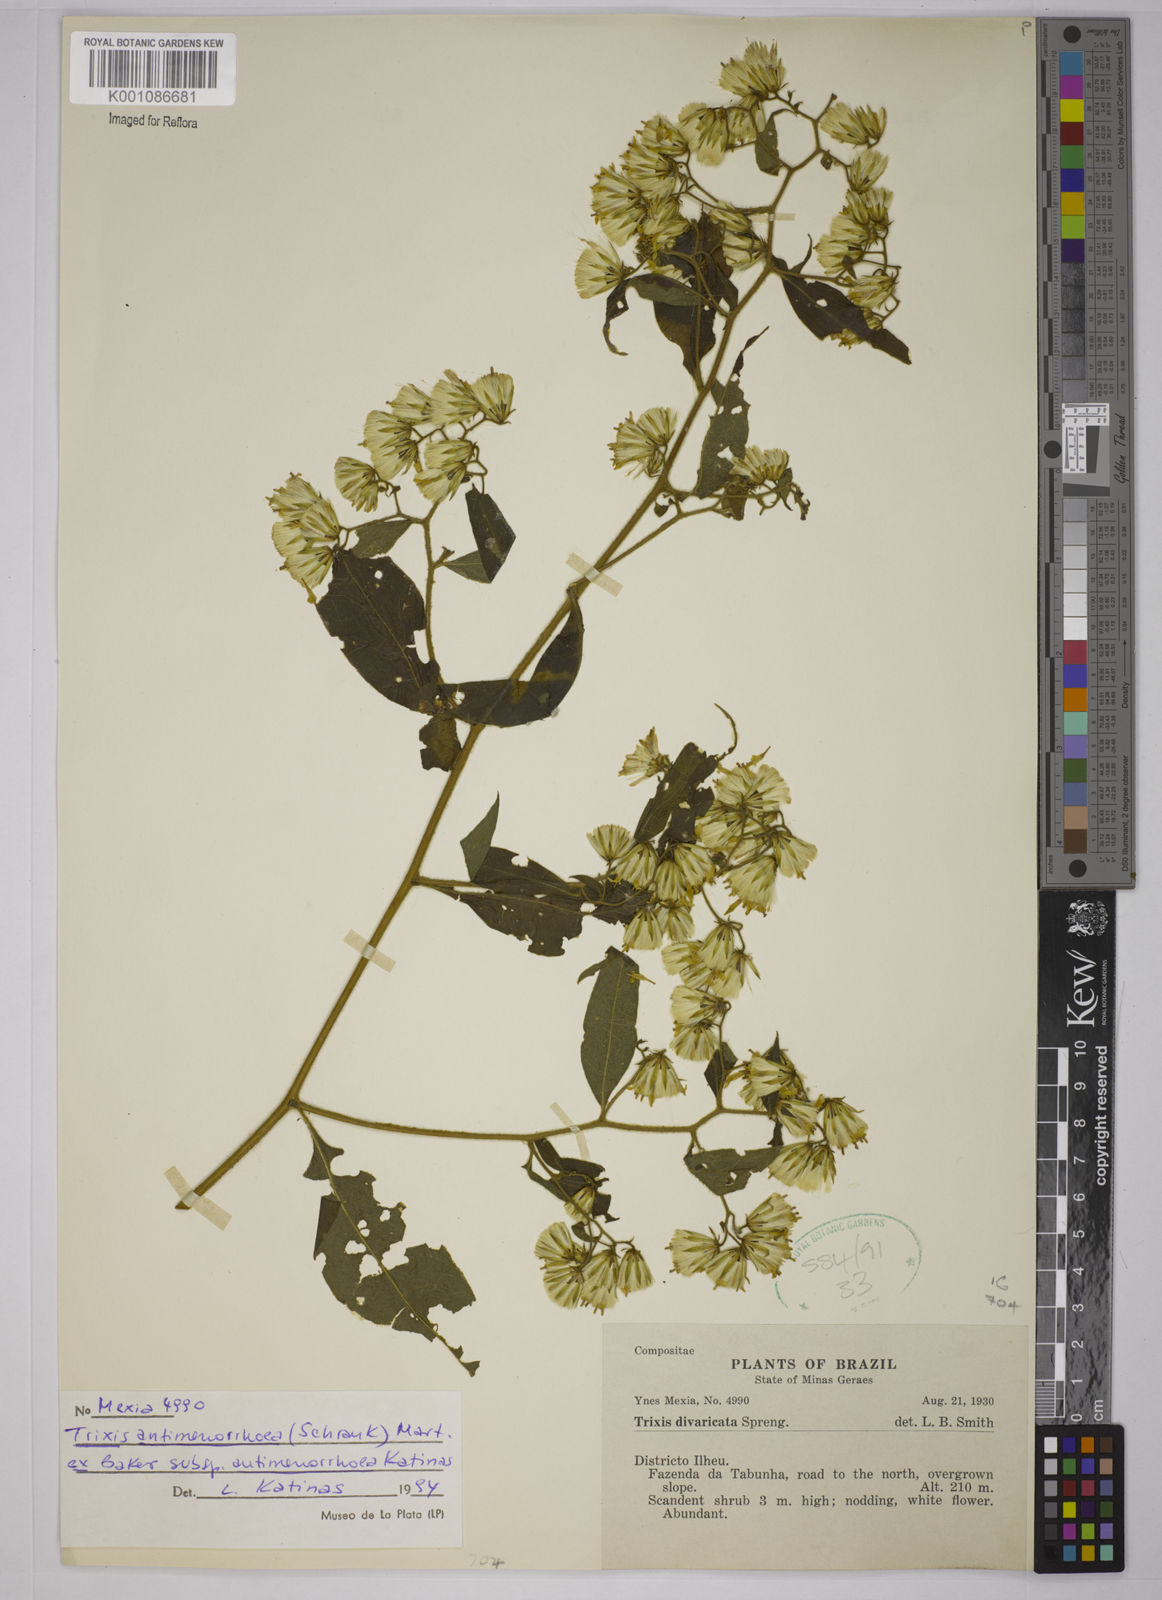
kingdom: Plantae
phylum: Tracheophyta
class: Magnoliopsida
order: Asterales
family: Asteraceae
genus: Trixis
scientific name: Trixis divaricata
